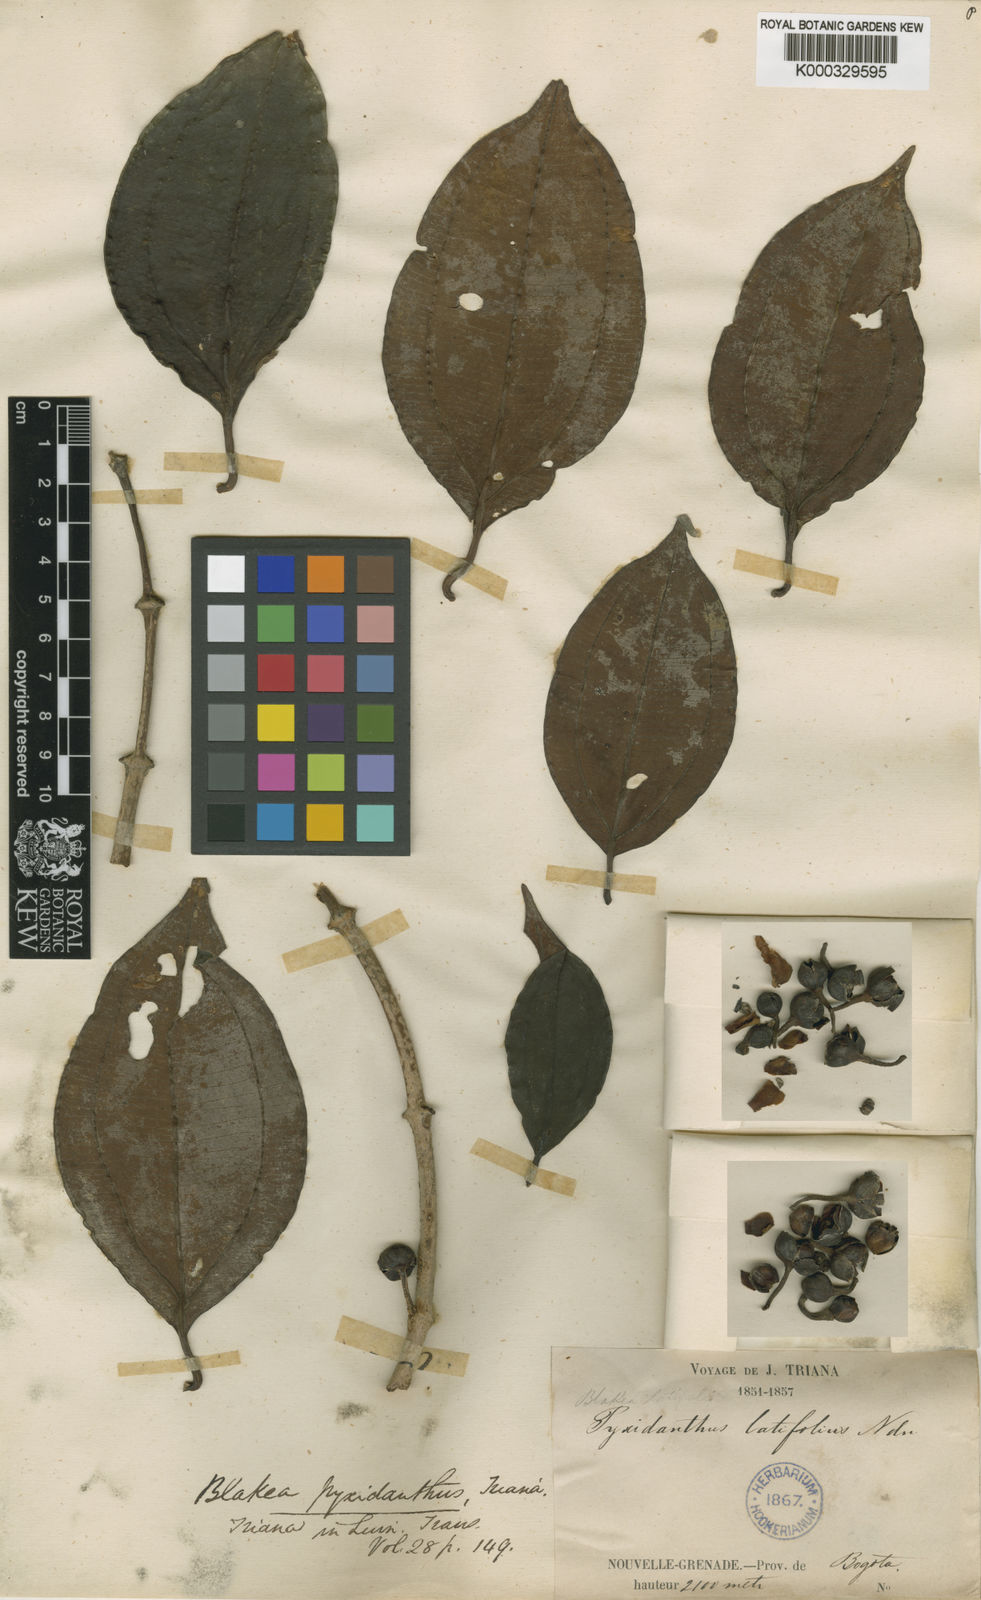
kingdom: Plantae
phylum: Tracheophyta
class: Magnoliopsida
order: Myrtales
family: Melastomataceae
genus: Blakea
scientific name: Blakea pyxidanthus
